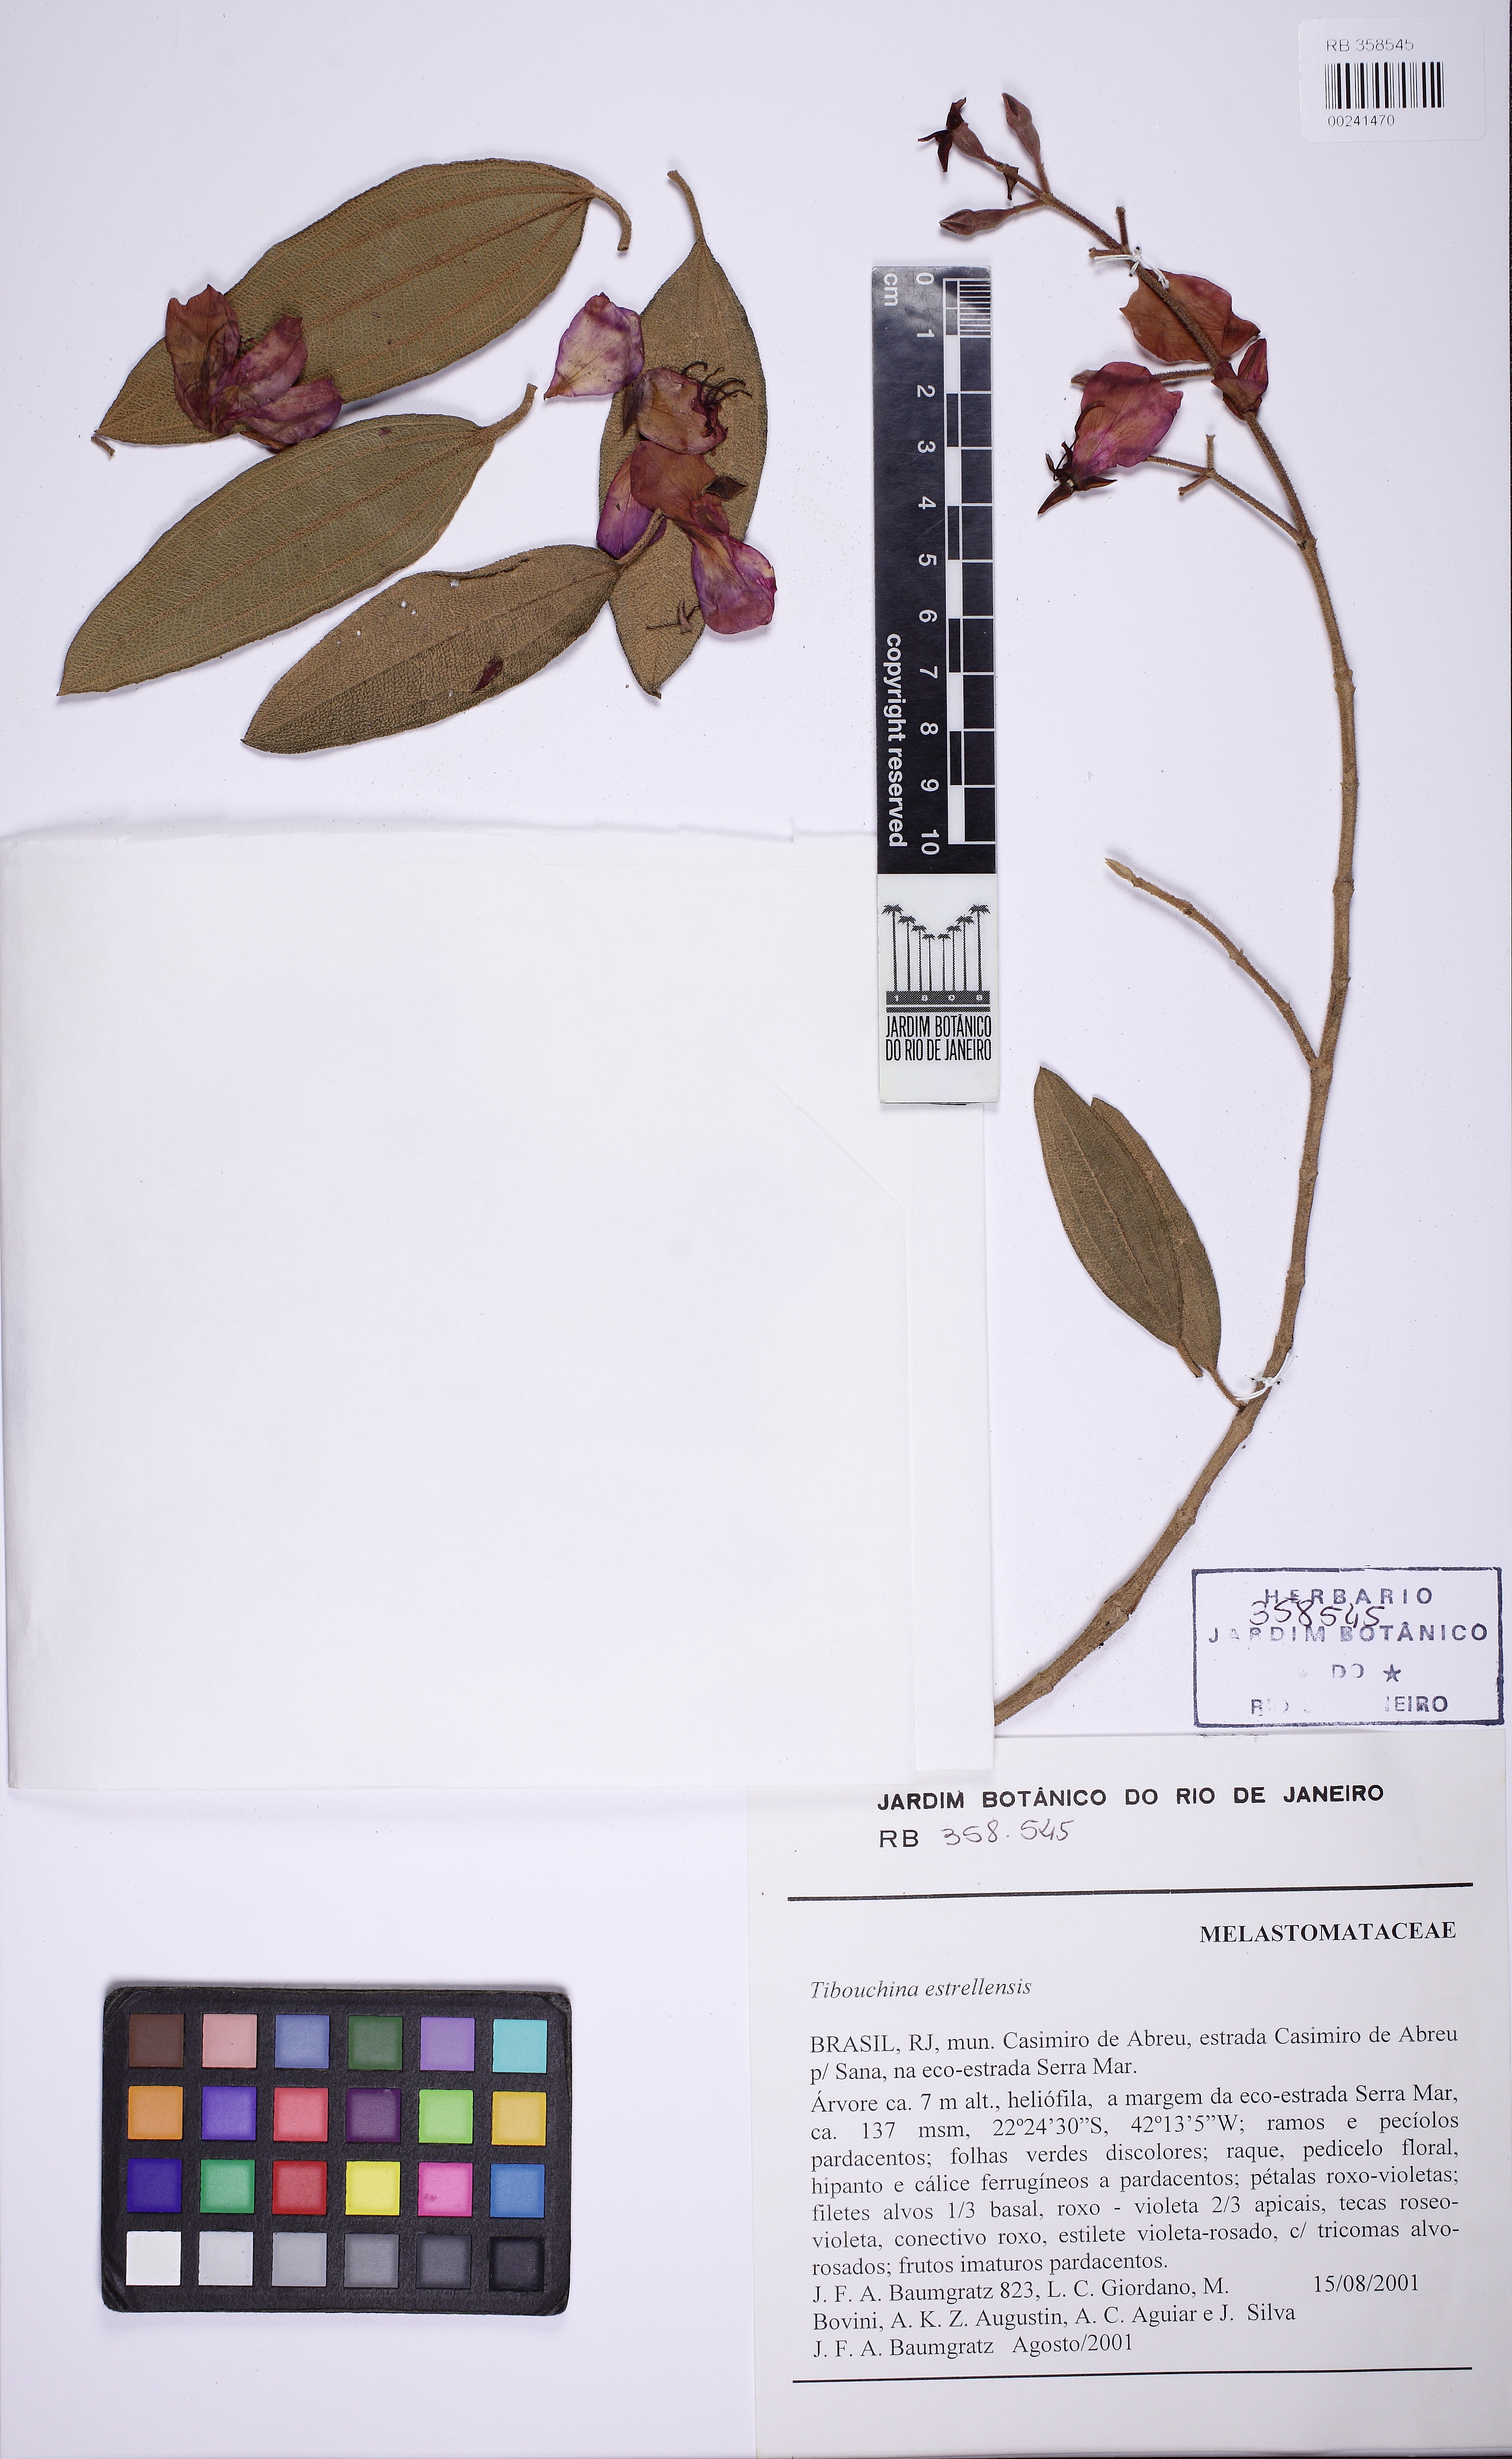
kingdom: Plantae
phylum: Tracheophyta
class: Magnoliopsida
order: Myrtales
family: Melastomataceae
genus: Pleroma
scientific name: Pleroma estrellense
